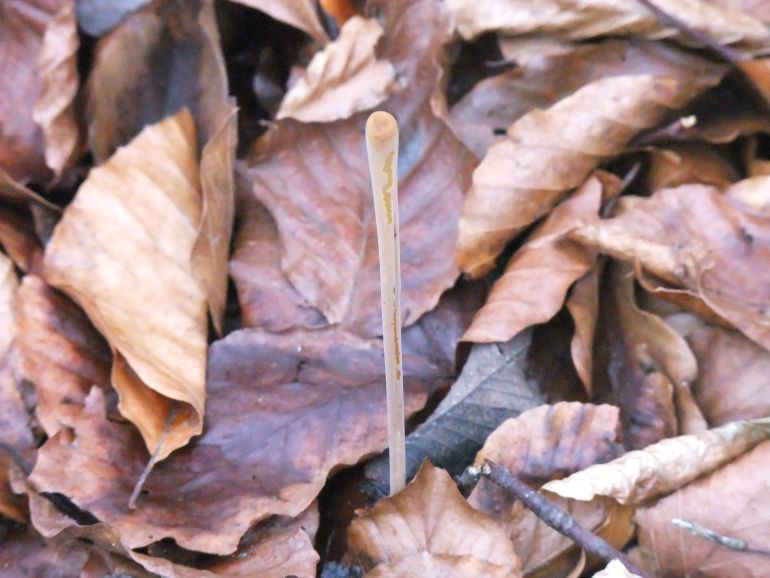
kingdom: Fungi
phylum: Basidiomycota
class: Agaricomycetes
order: Agaricales
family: Typhulaceae
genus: Typhula
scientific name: Typhula fistulosa
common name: pibet rørkølle
